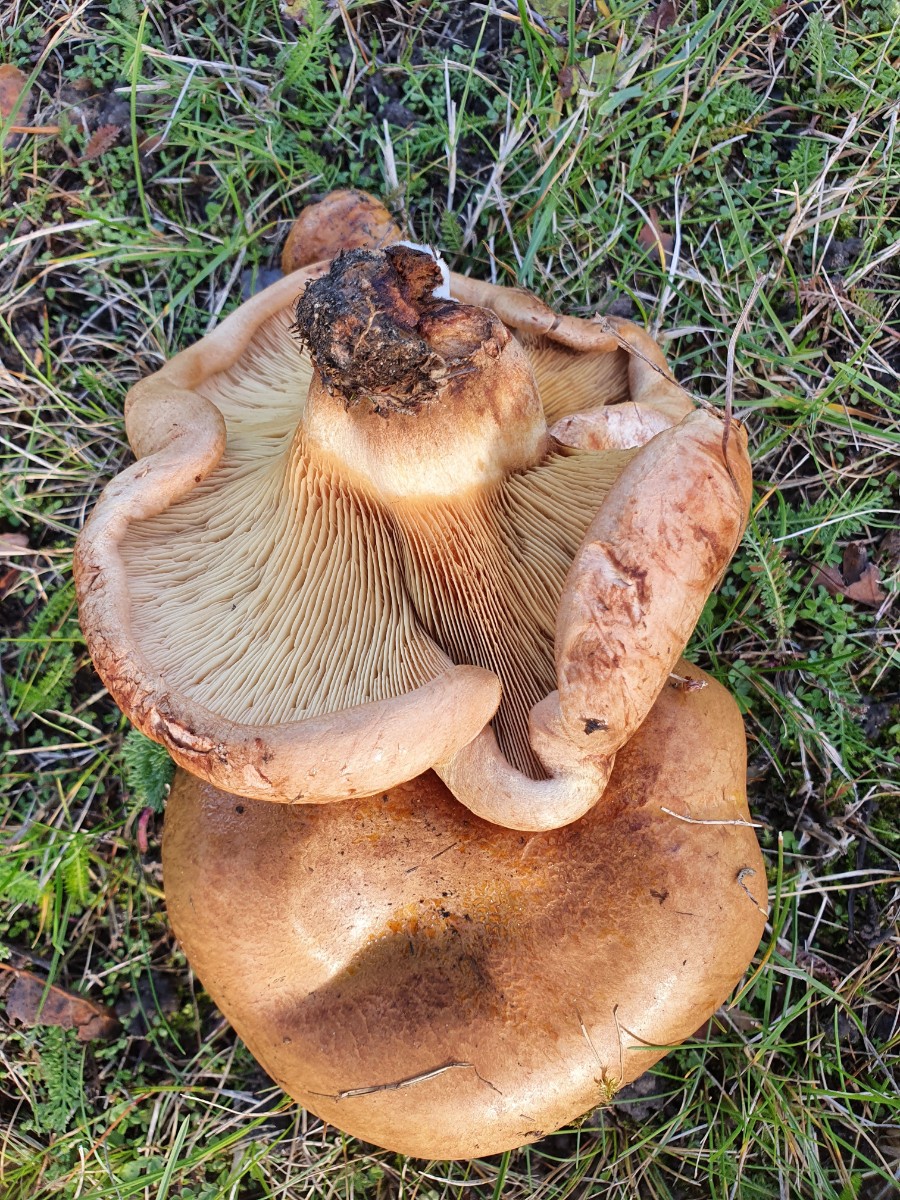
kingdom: Fungi
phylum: Basidiomycota
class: Agaricomycetes
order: Boletales
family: Paxillaceae
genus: Paxillus
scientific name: Paxillus obscurisporus
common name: mahognisporet netbladhat
